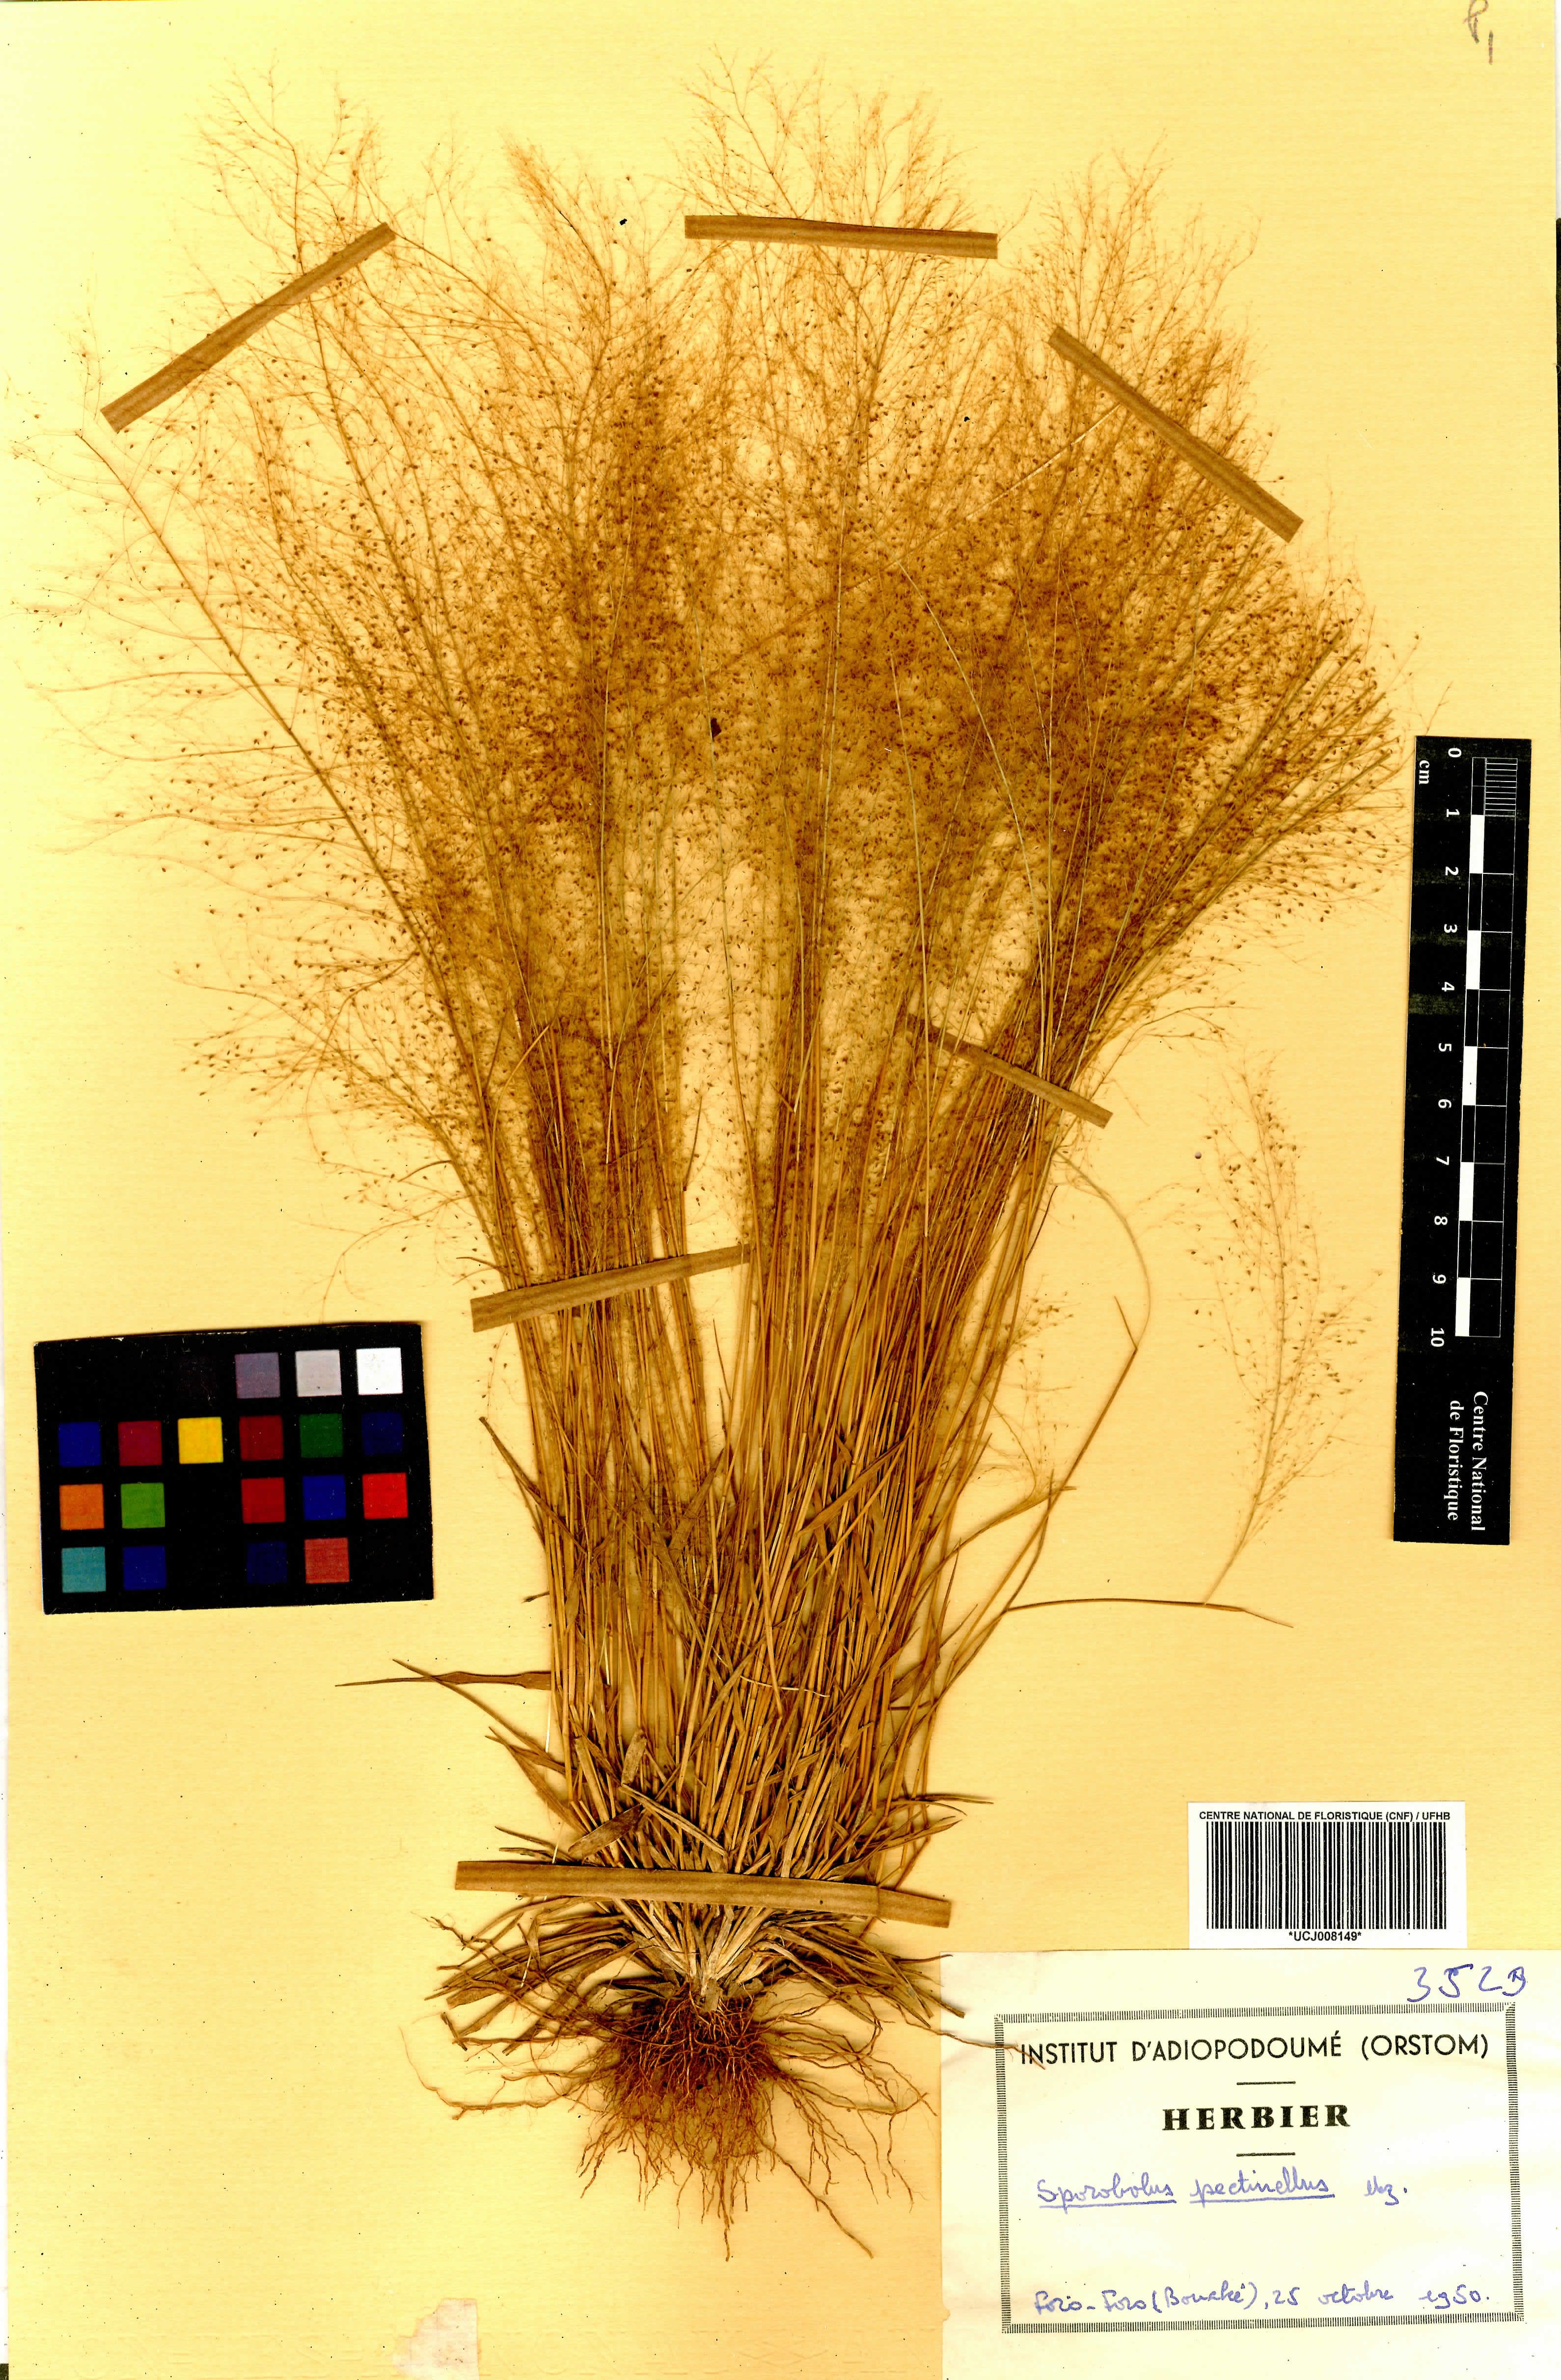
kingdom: Plantae
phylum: Tracheophyta
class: Liliopsida
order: Poales
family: Poaceae
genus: Sporobolus
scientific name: Sporobolus pectinellus
